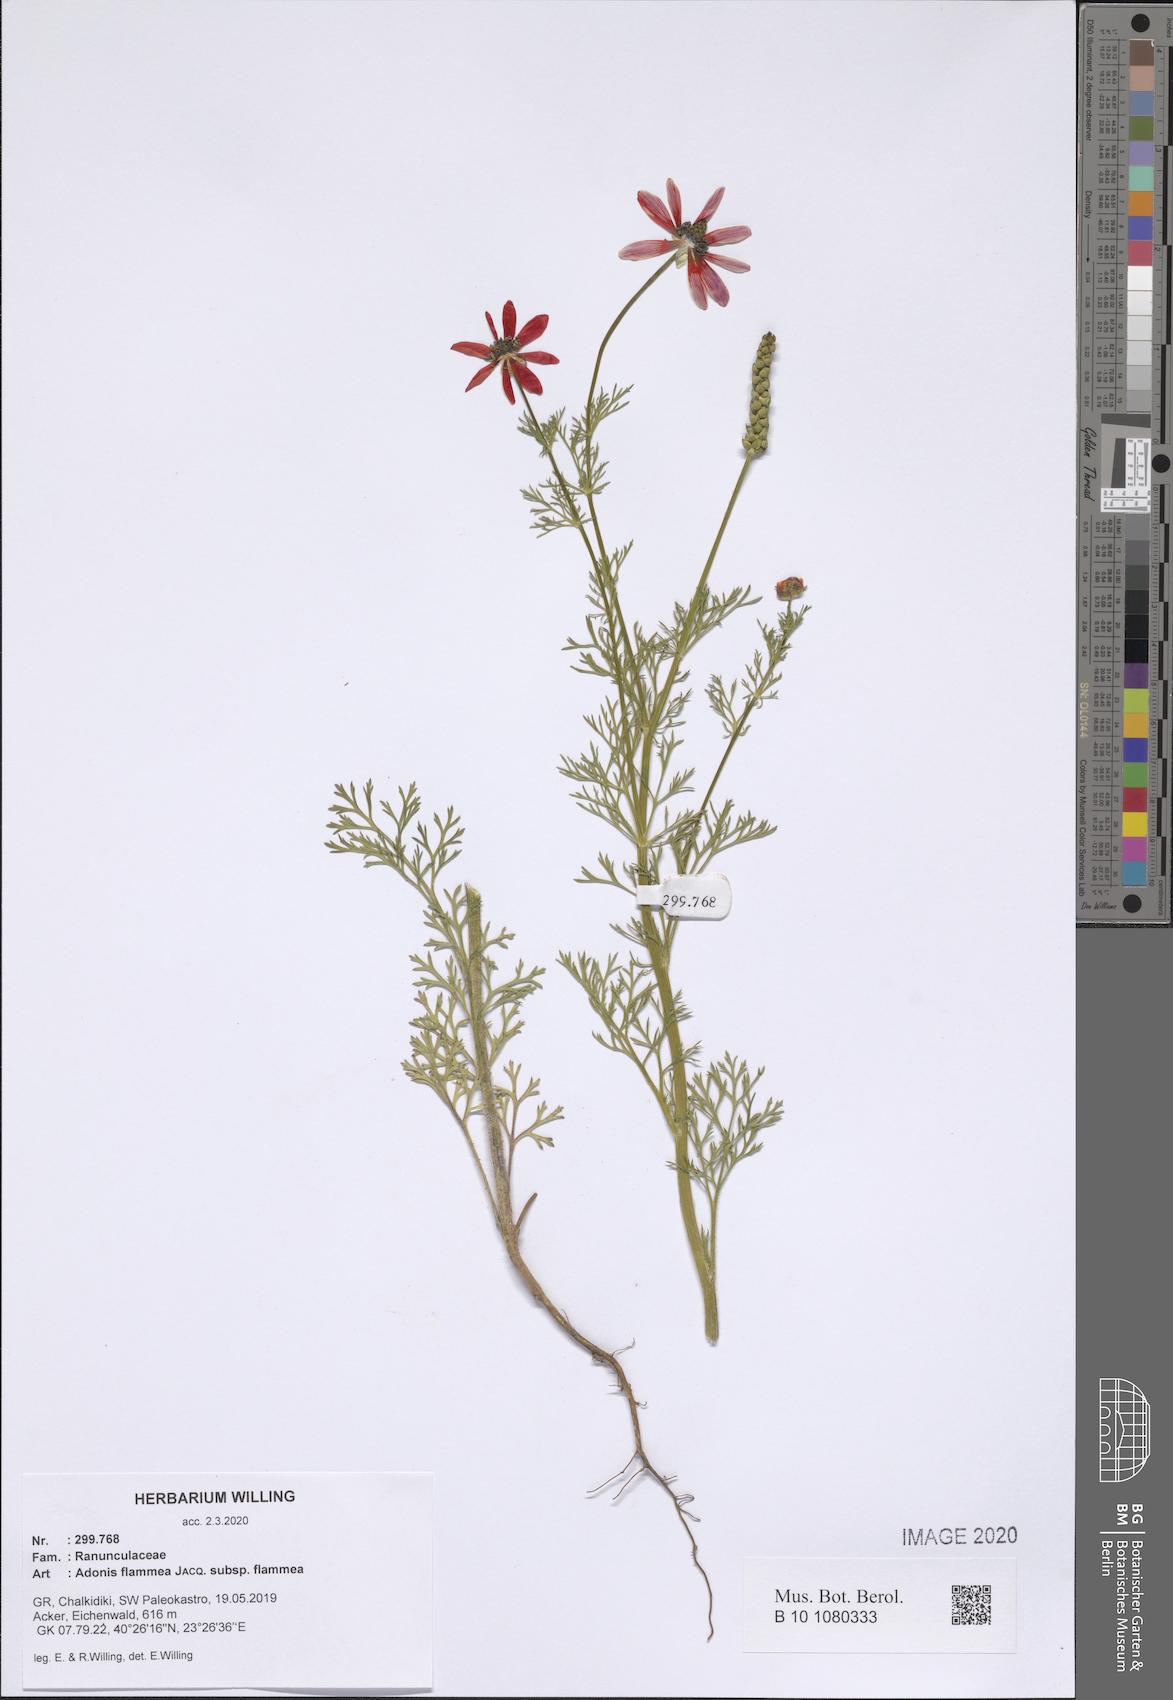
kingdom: Plantae
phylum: Tracheophyta
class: Magnoliopsida
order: Ranunculales
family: Ranunculaceae
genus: Adonis
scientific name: Adonis flammea
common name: Large pheasant's-eye
